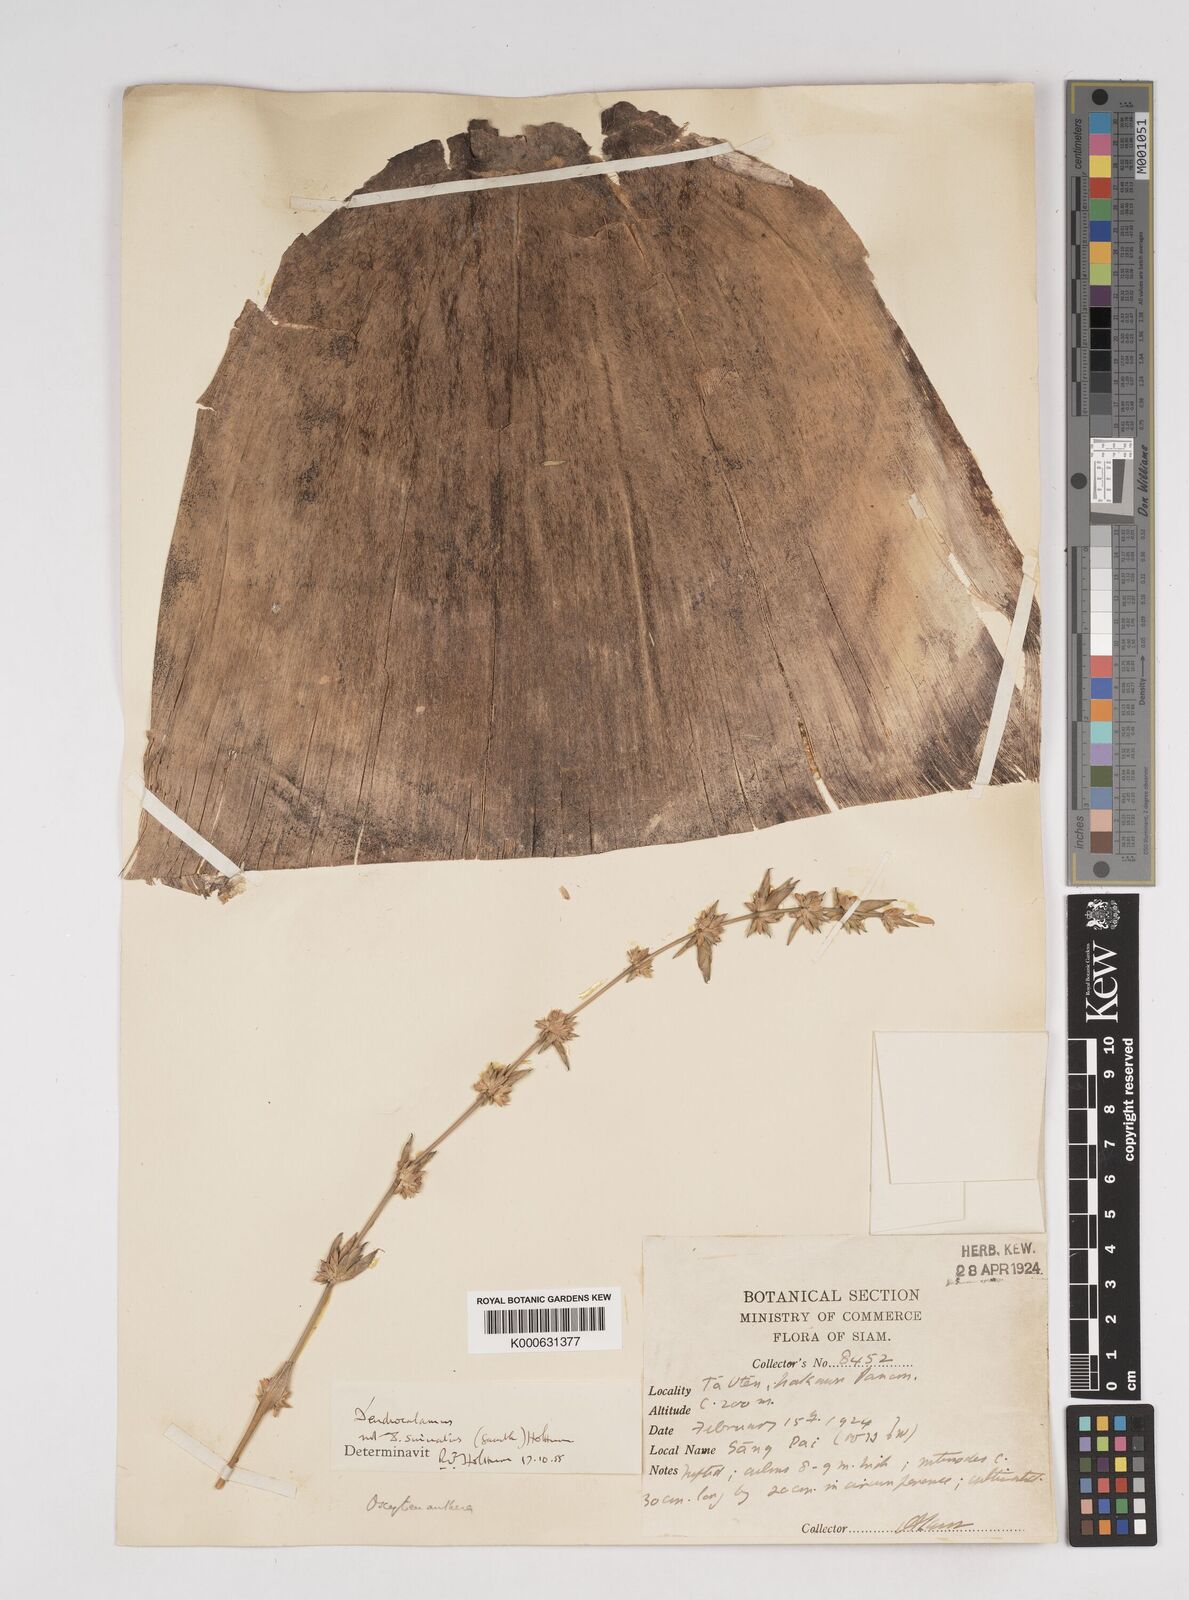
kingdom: Plantae
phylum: Tracheophyta
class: Liliopsida
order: Poales
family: Poaceae
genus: Dendrocalamus
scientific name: Dendrocalamus
